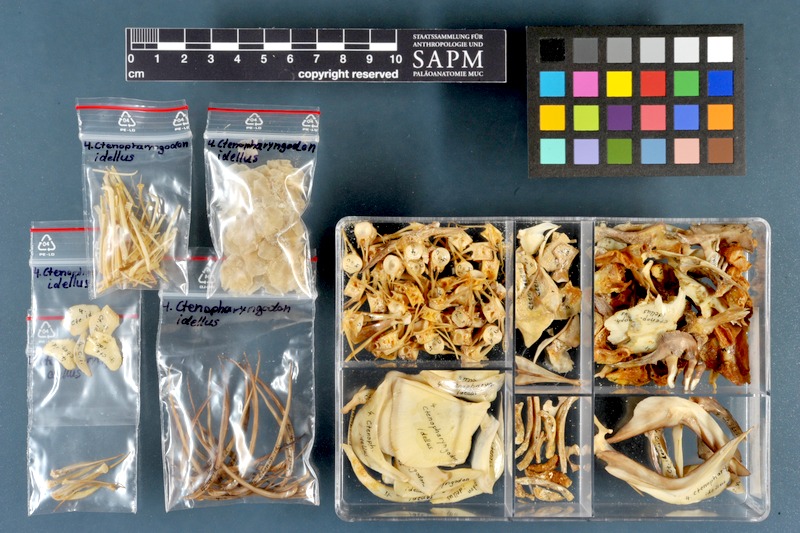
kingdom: Animalia
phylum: Chordata
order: Cypriniformes
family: Cyprinidae
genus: Ctenopharyngodon
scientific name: Ctenopharyngodon idella
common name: Grass carp
